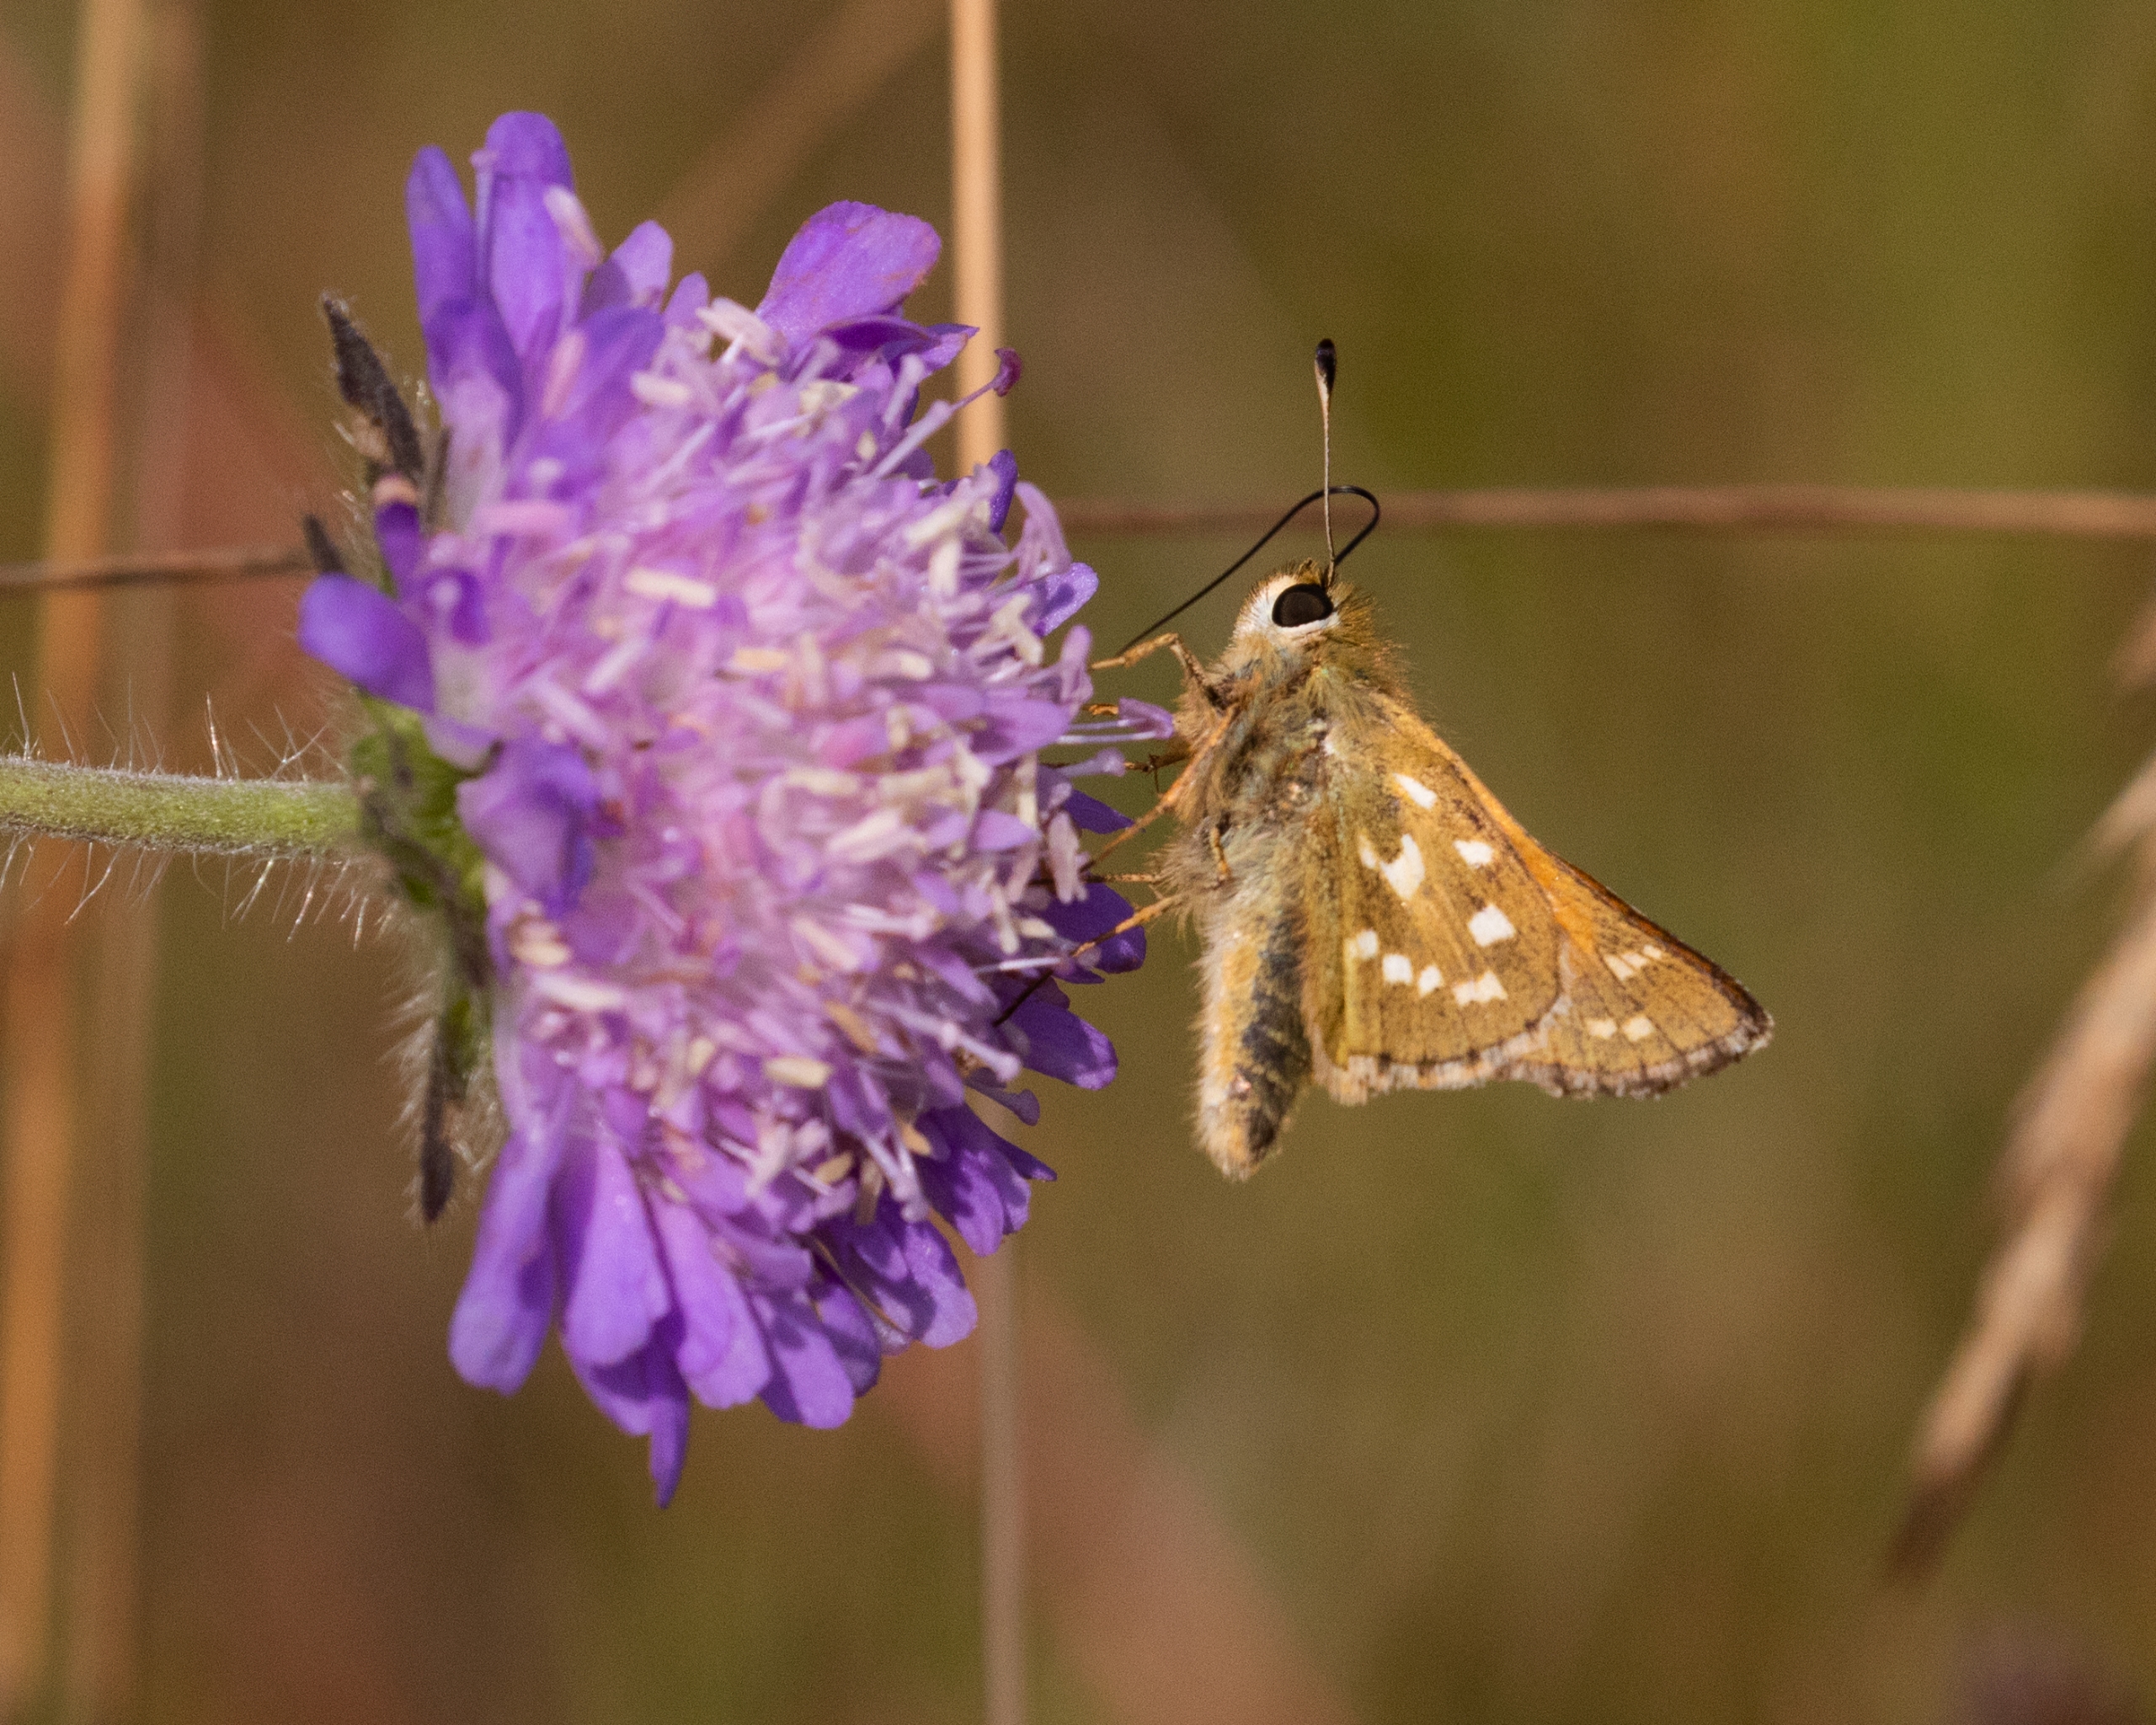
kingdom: Animalia
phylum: Arthropoda
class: Insecta
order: Lepidoptera
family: Hesperiidae
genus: Hesperia
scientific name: Hesperia comma
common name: Kommabredpande
